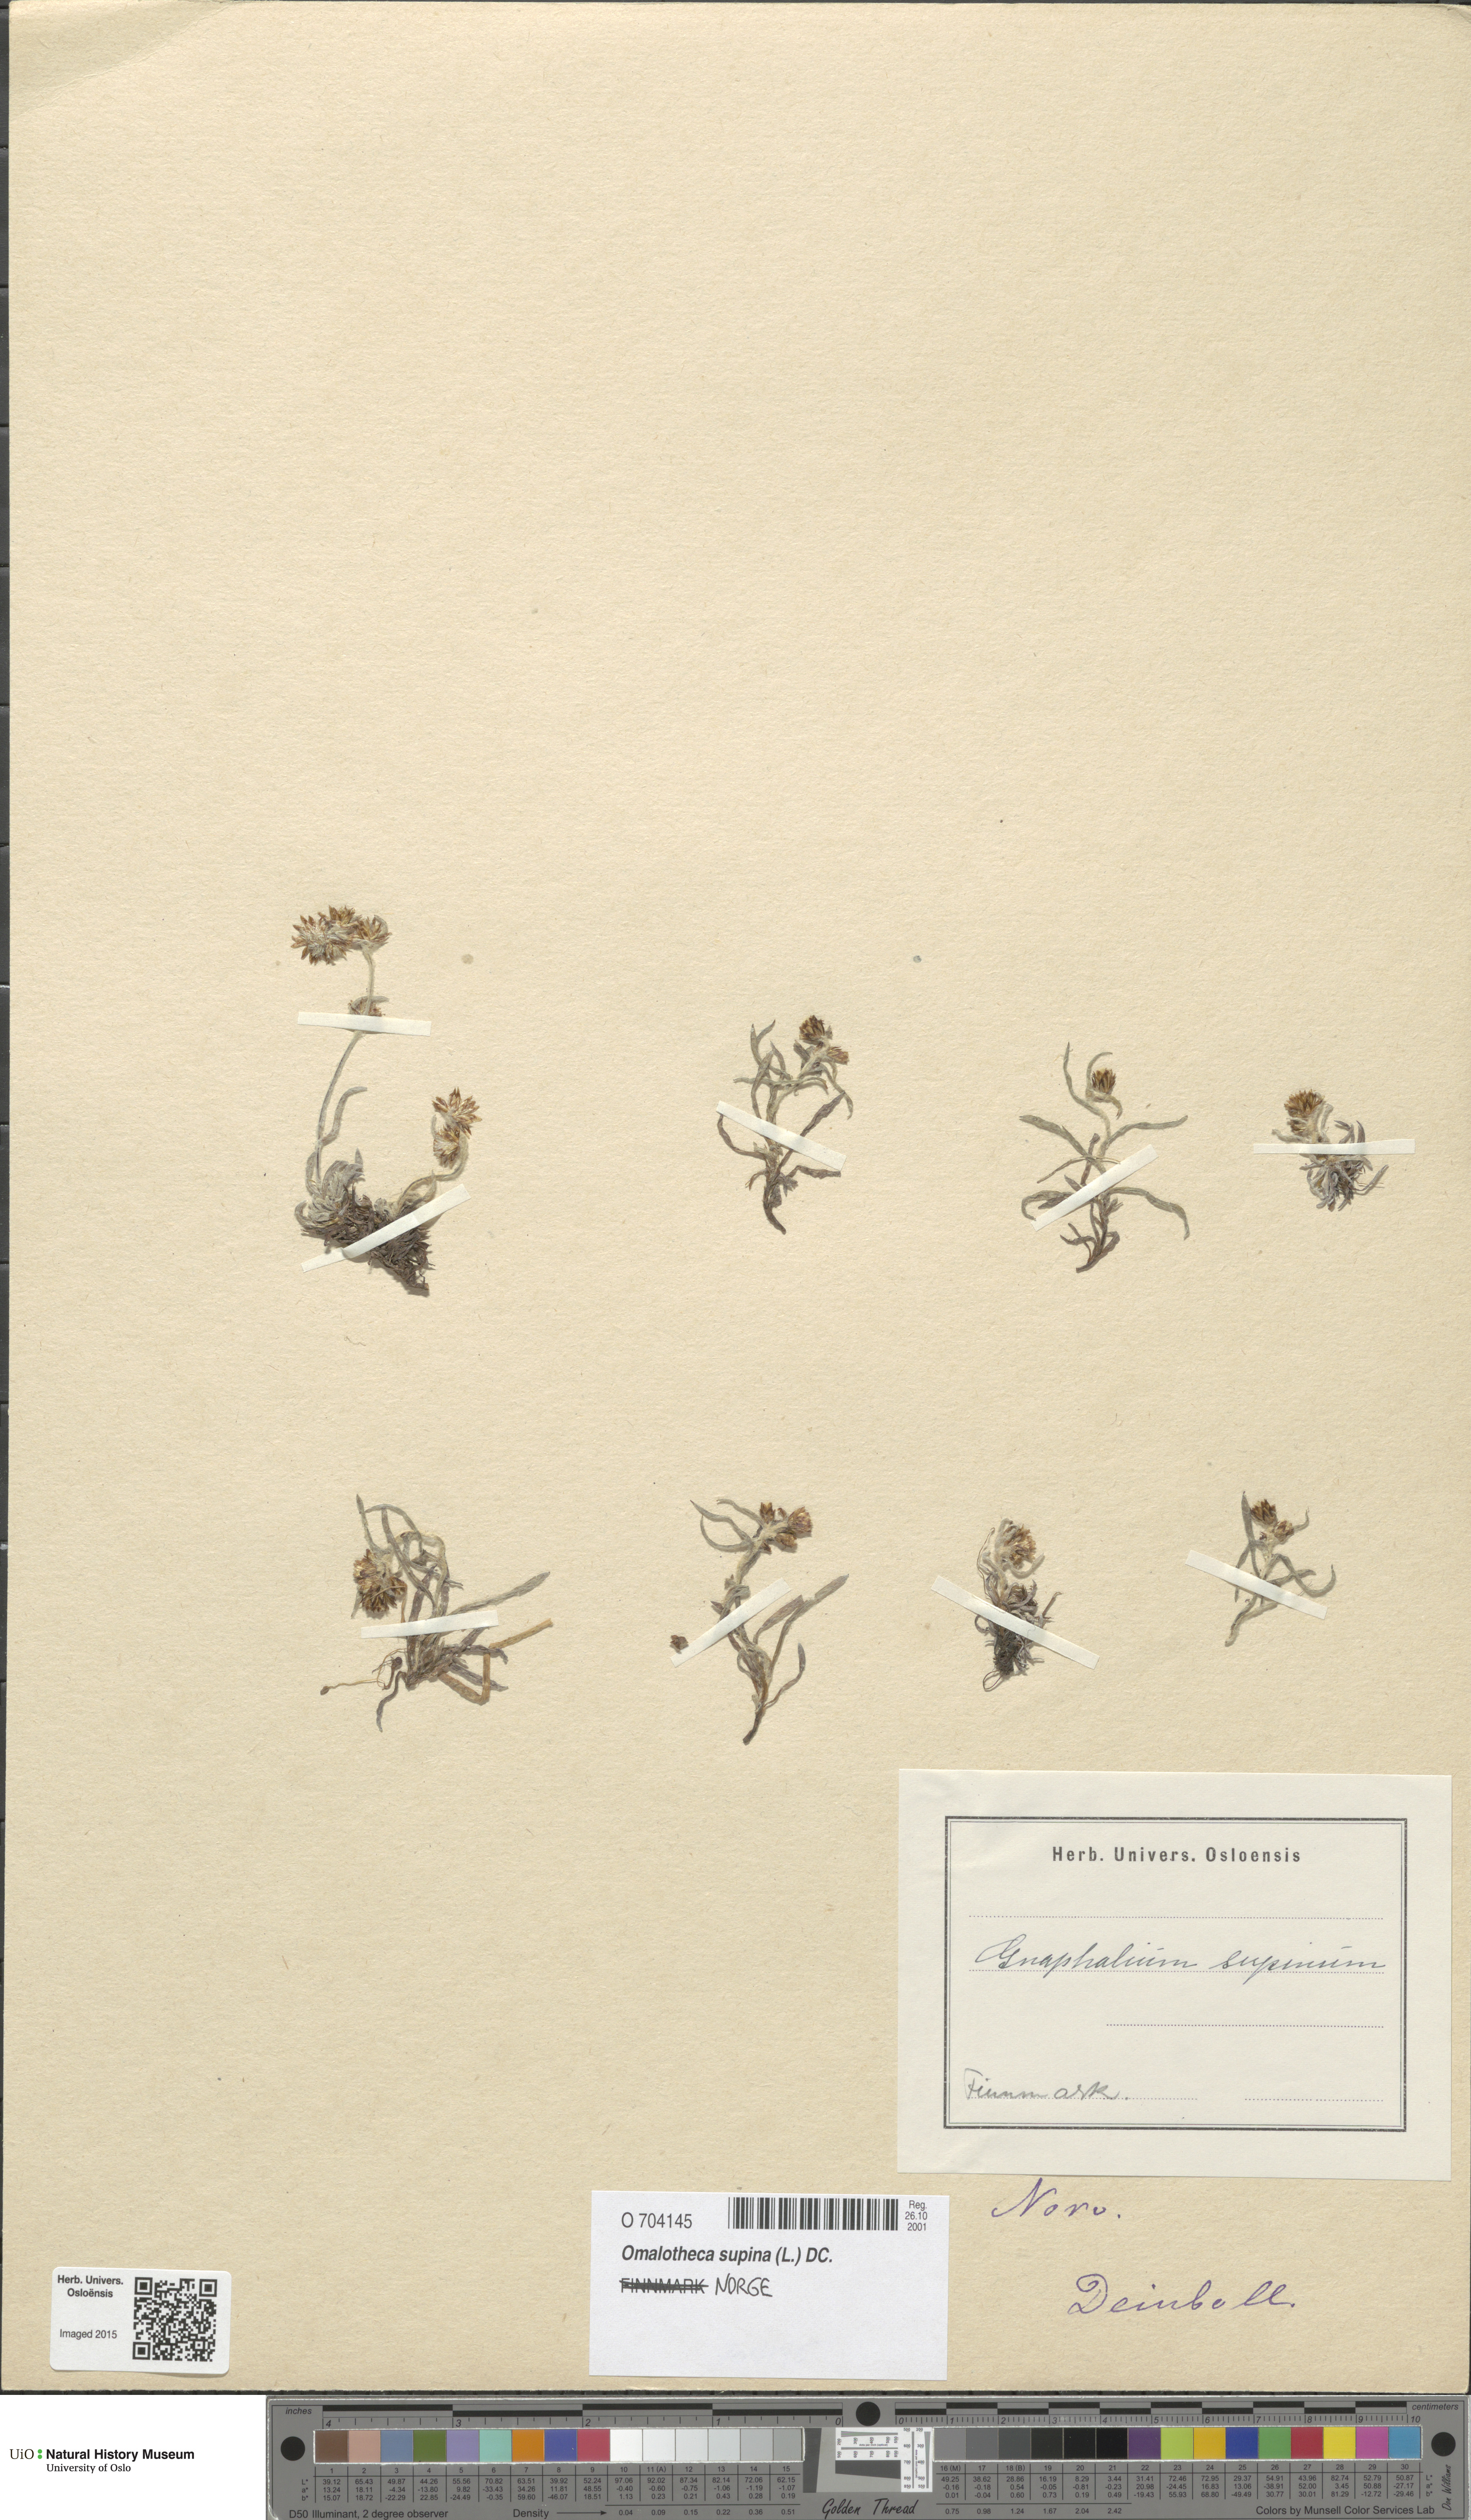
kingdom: Plantae
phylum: Tracheophyta
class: Magnoliopsida
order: Asterales
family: Asteraceae
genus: Omalotheca
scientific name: Omalotheca supina
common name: Alpine arctic-cudweed
